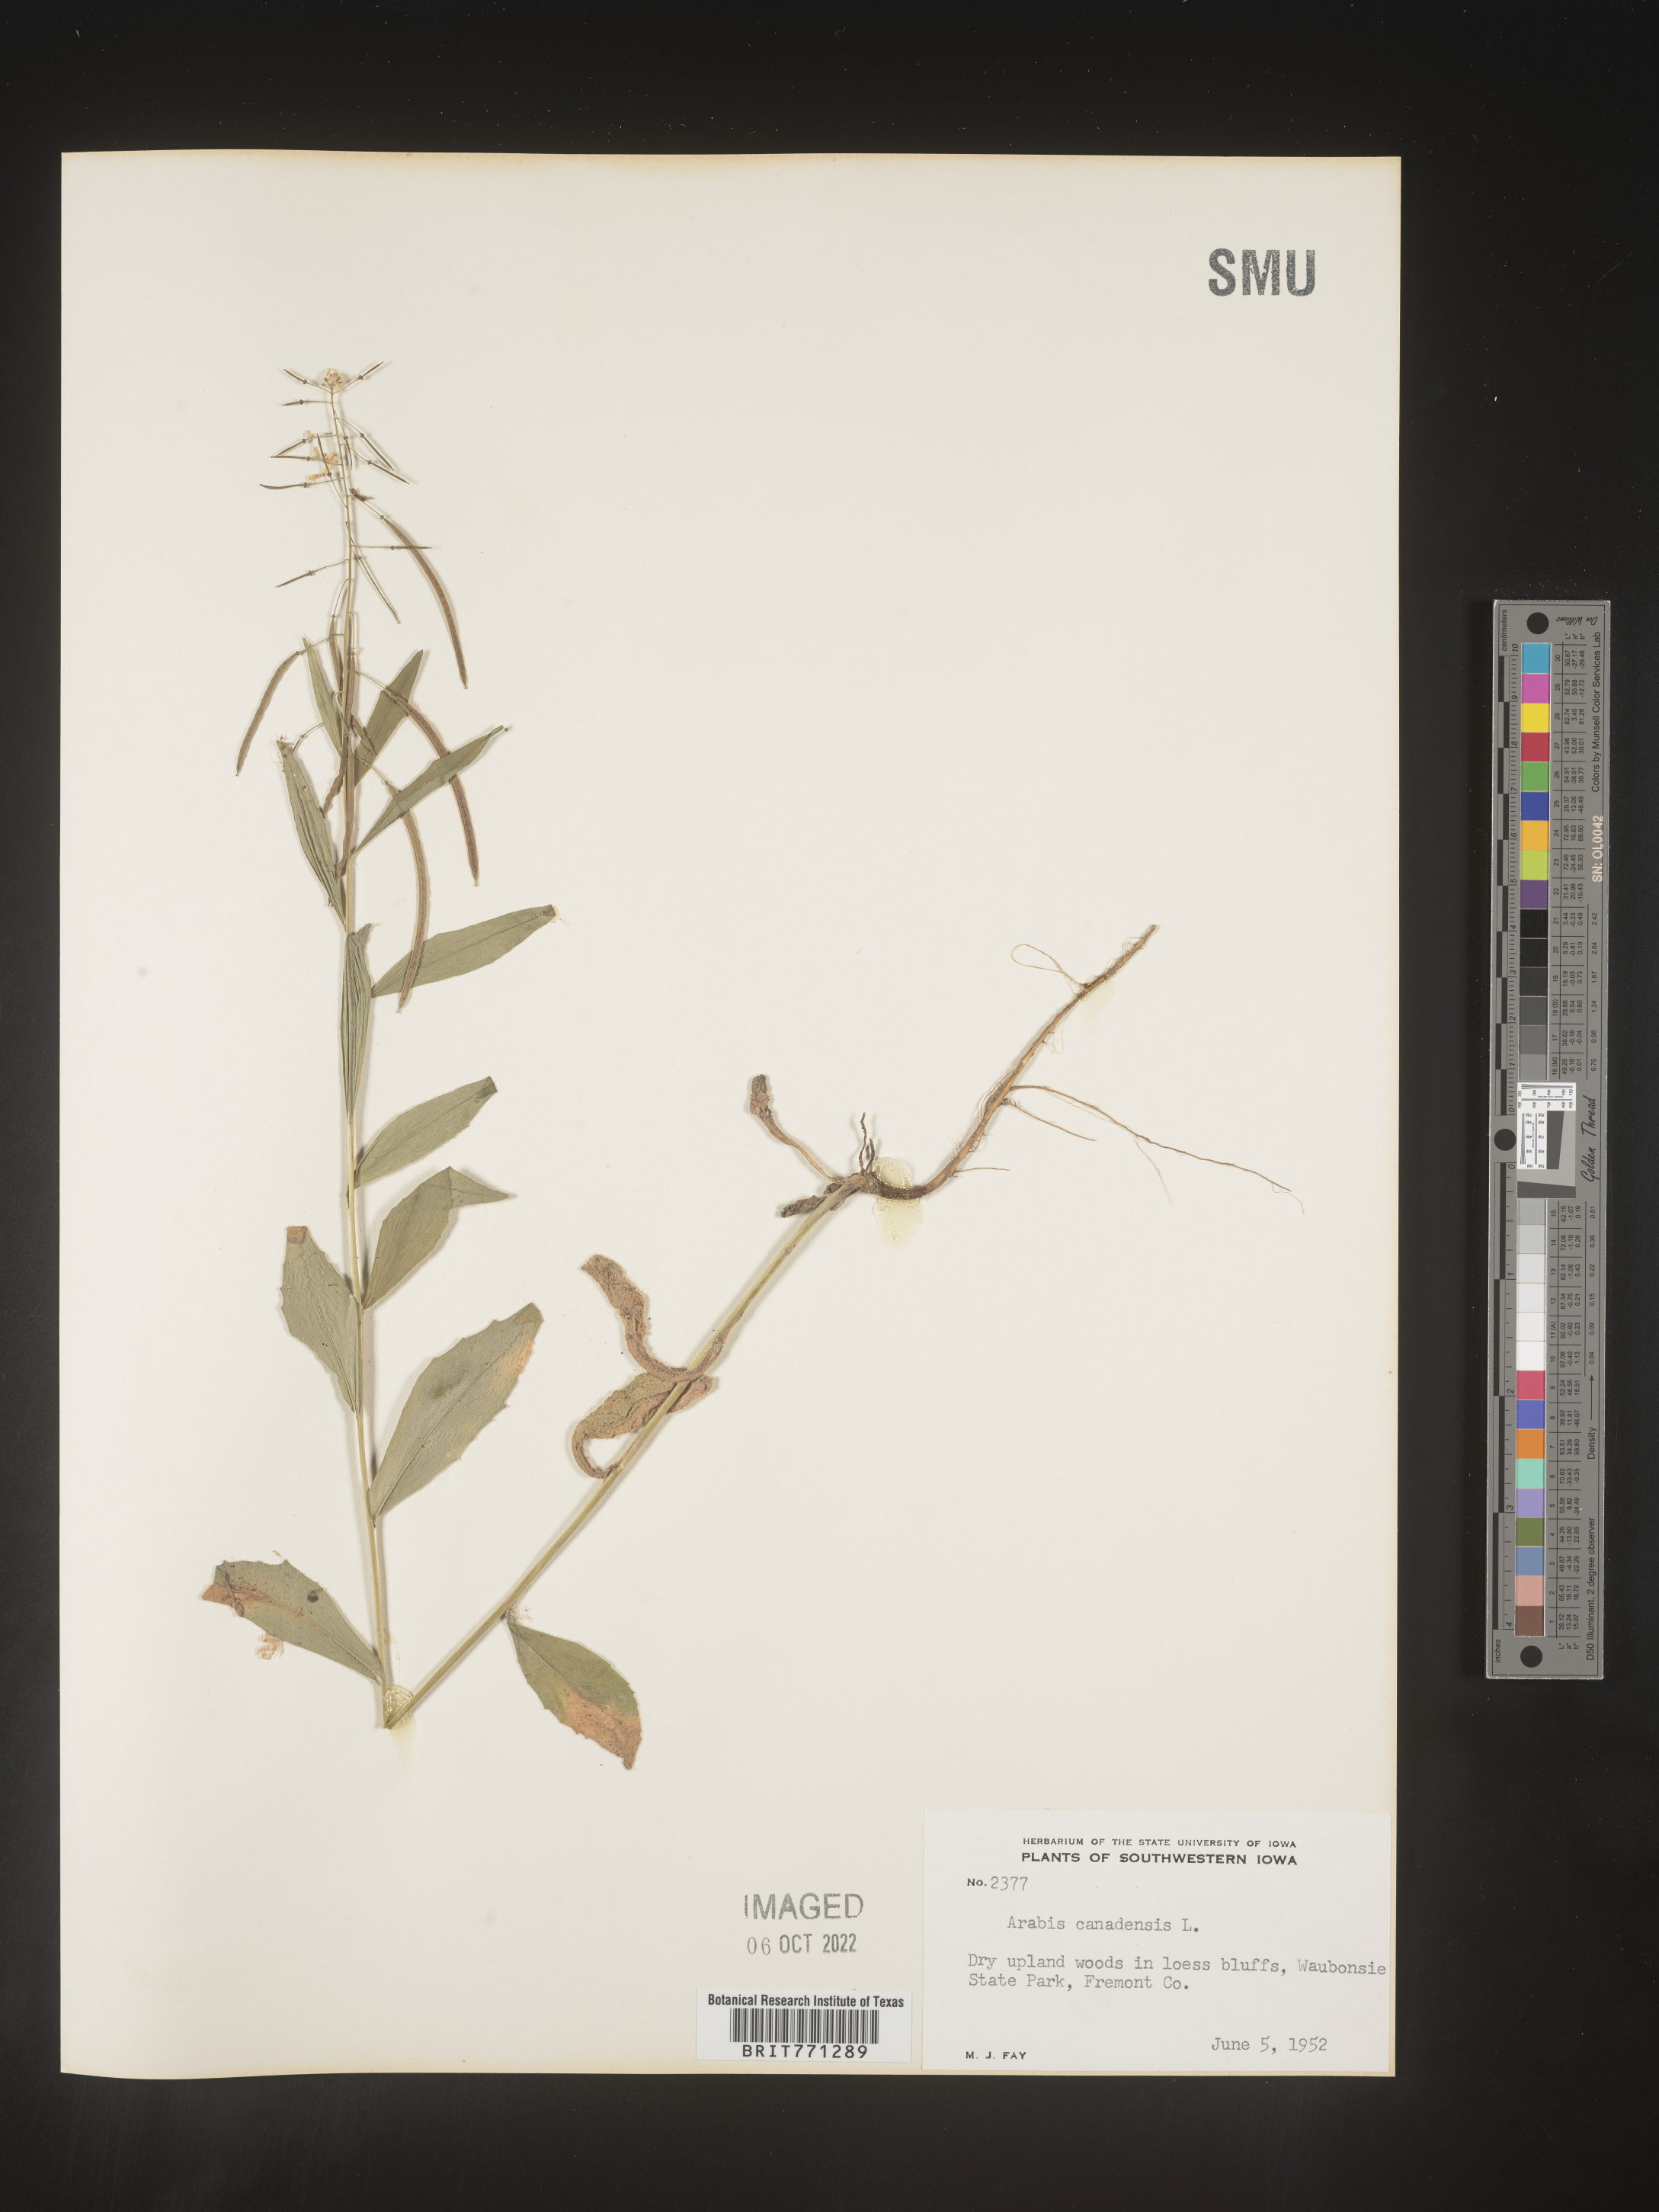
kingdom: Plantae
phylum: Tracheophyta
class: Magnoliopsida
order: Brassicales
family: Brassicaceae
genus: Borodinia
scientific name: Borodinia canadensis
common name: Sicklepod
